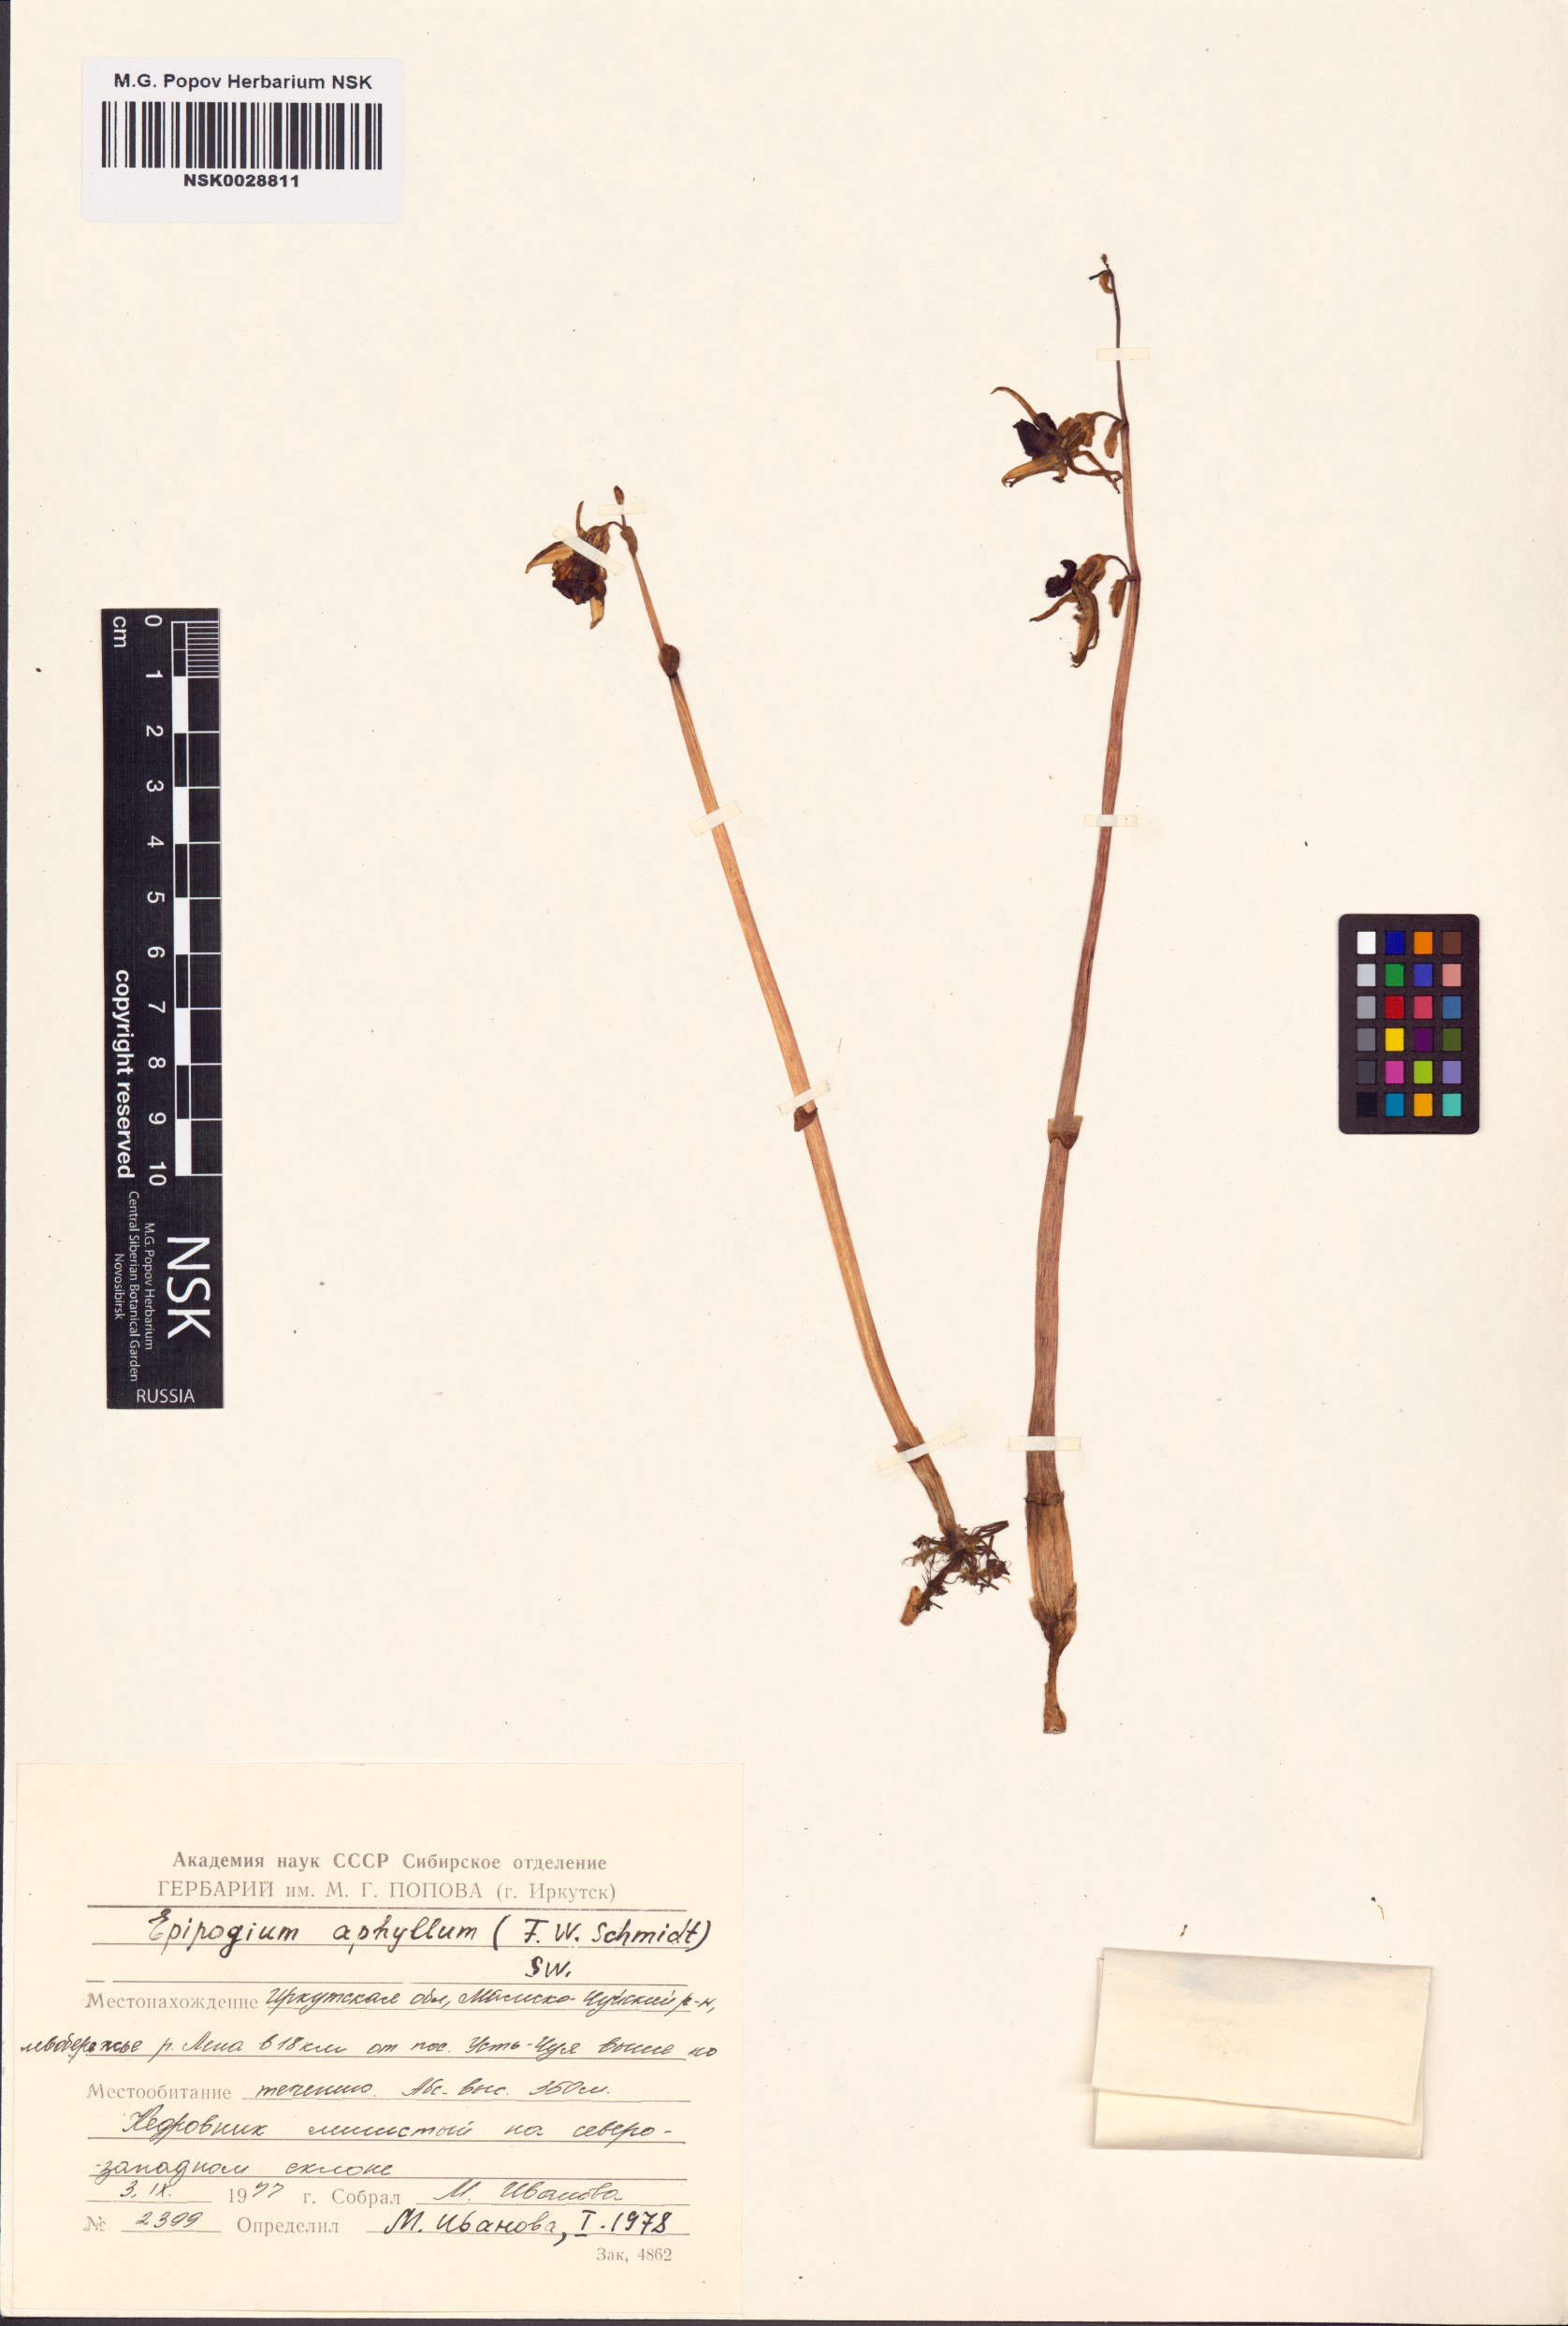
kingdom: Plantae
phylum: Tracheophyta
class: Liliopsida
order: Asparagales
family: Orchidaceae
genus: Epipogium
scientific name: Epipogium aphyllum
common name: Ghost orchid
